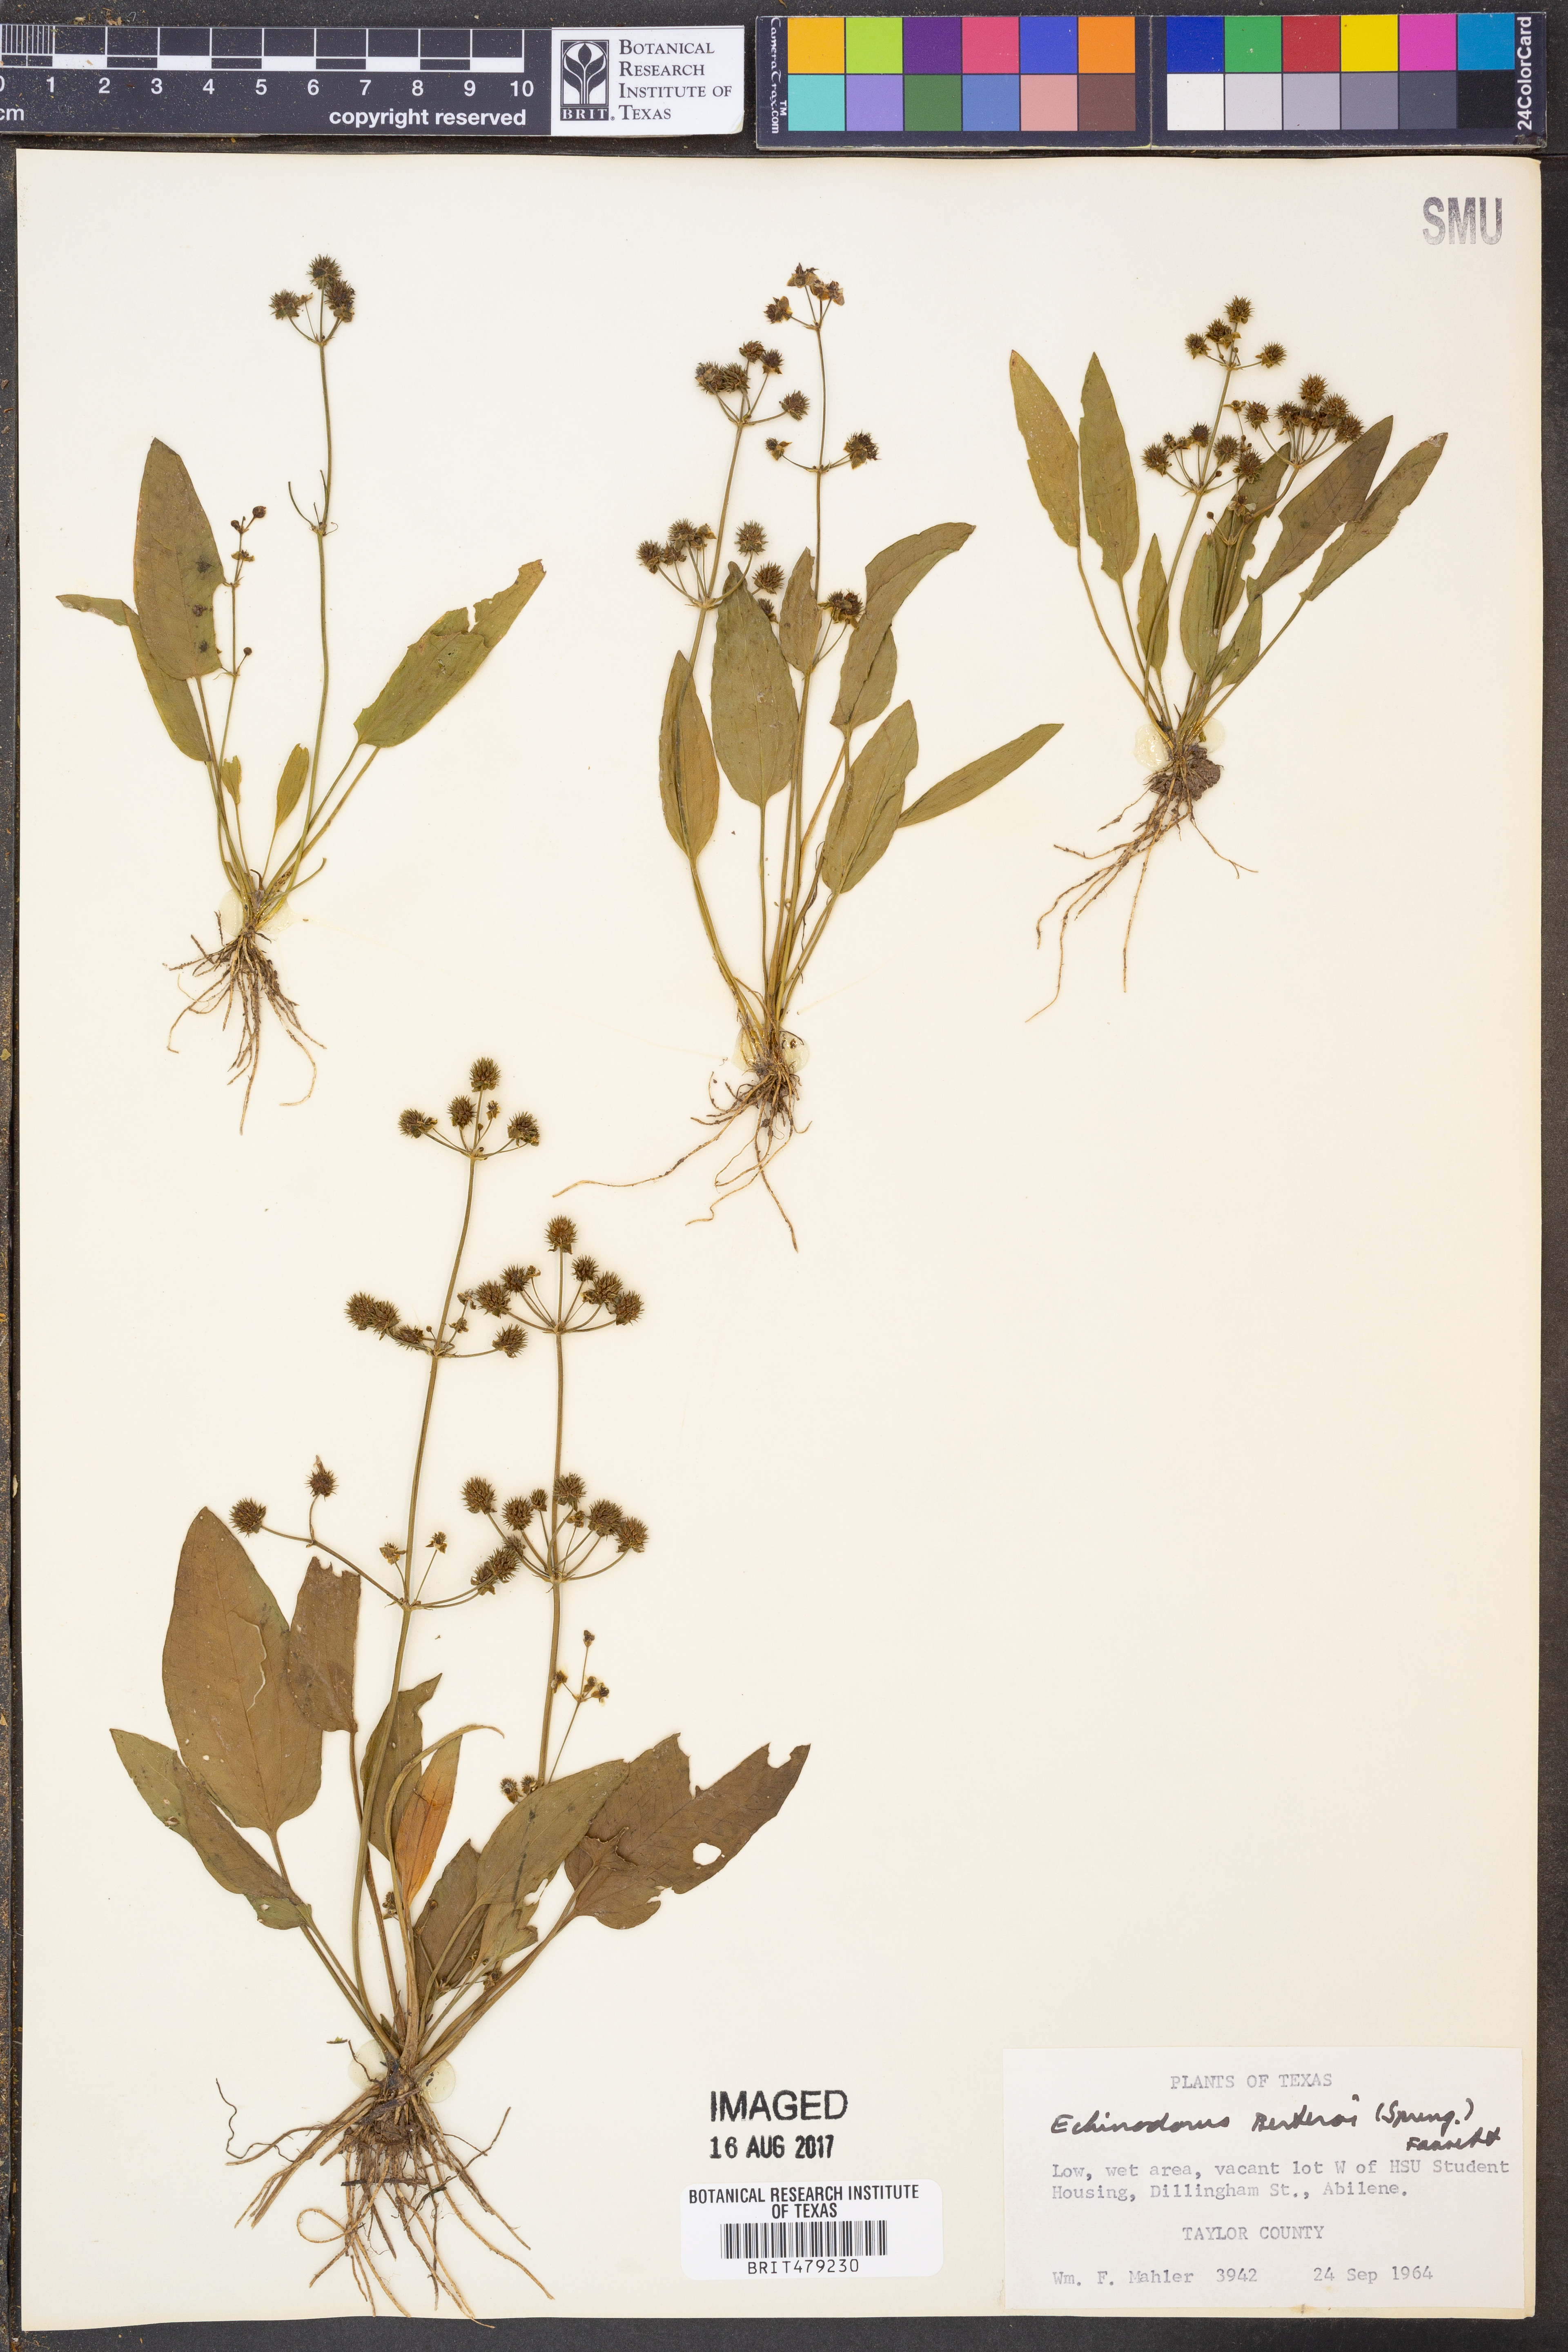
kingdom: Plantae
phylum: Tracheophyta
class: Liliopsida
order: Alismatales
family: Alismataceae
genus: Echinodorus
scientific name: Echinodorus berteroi
